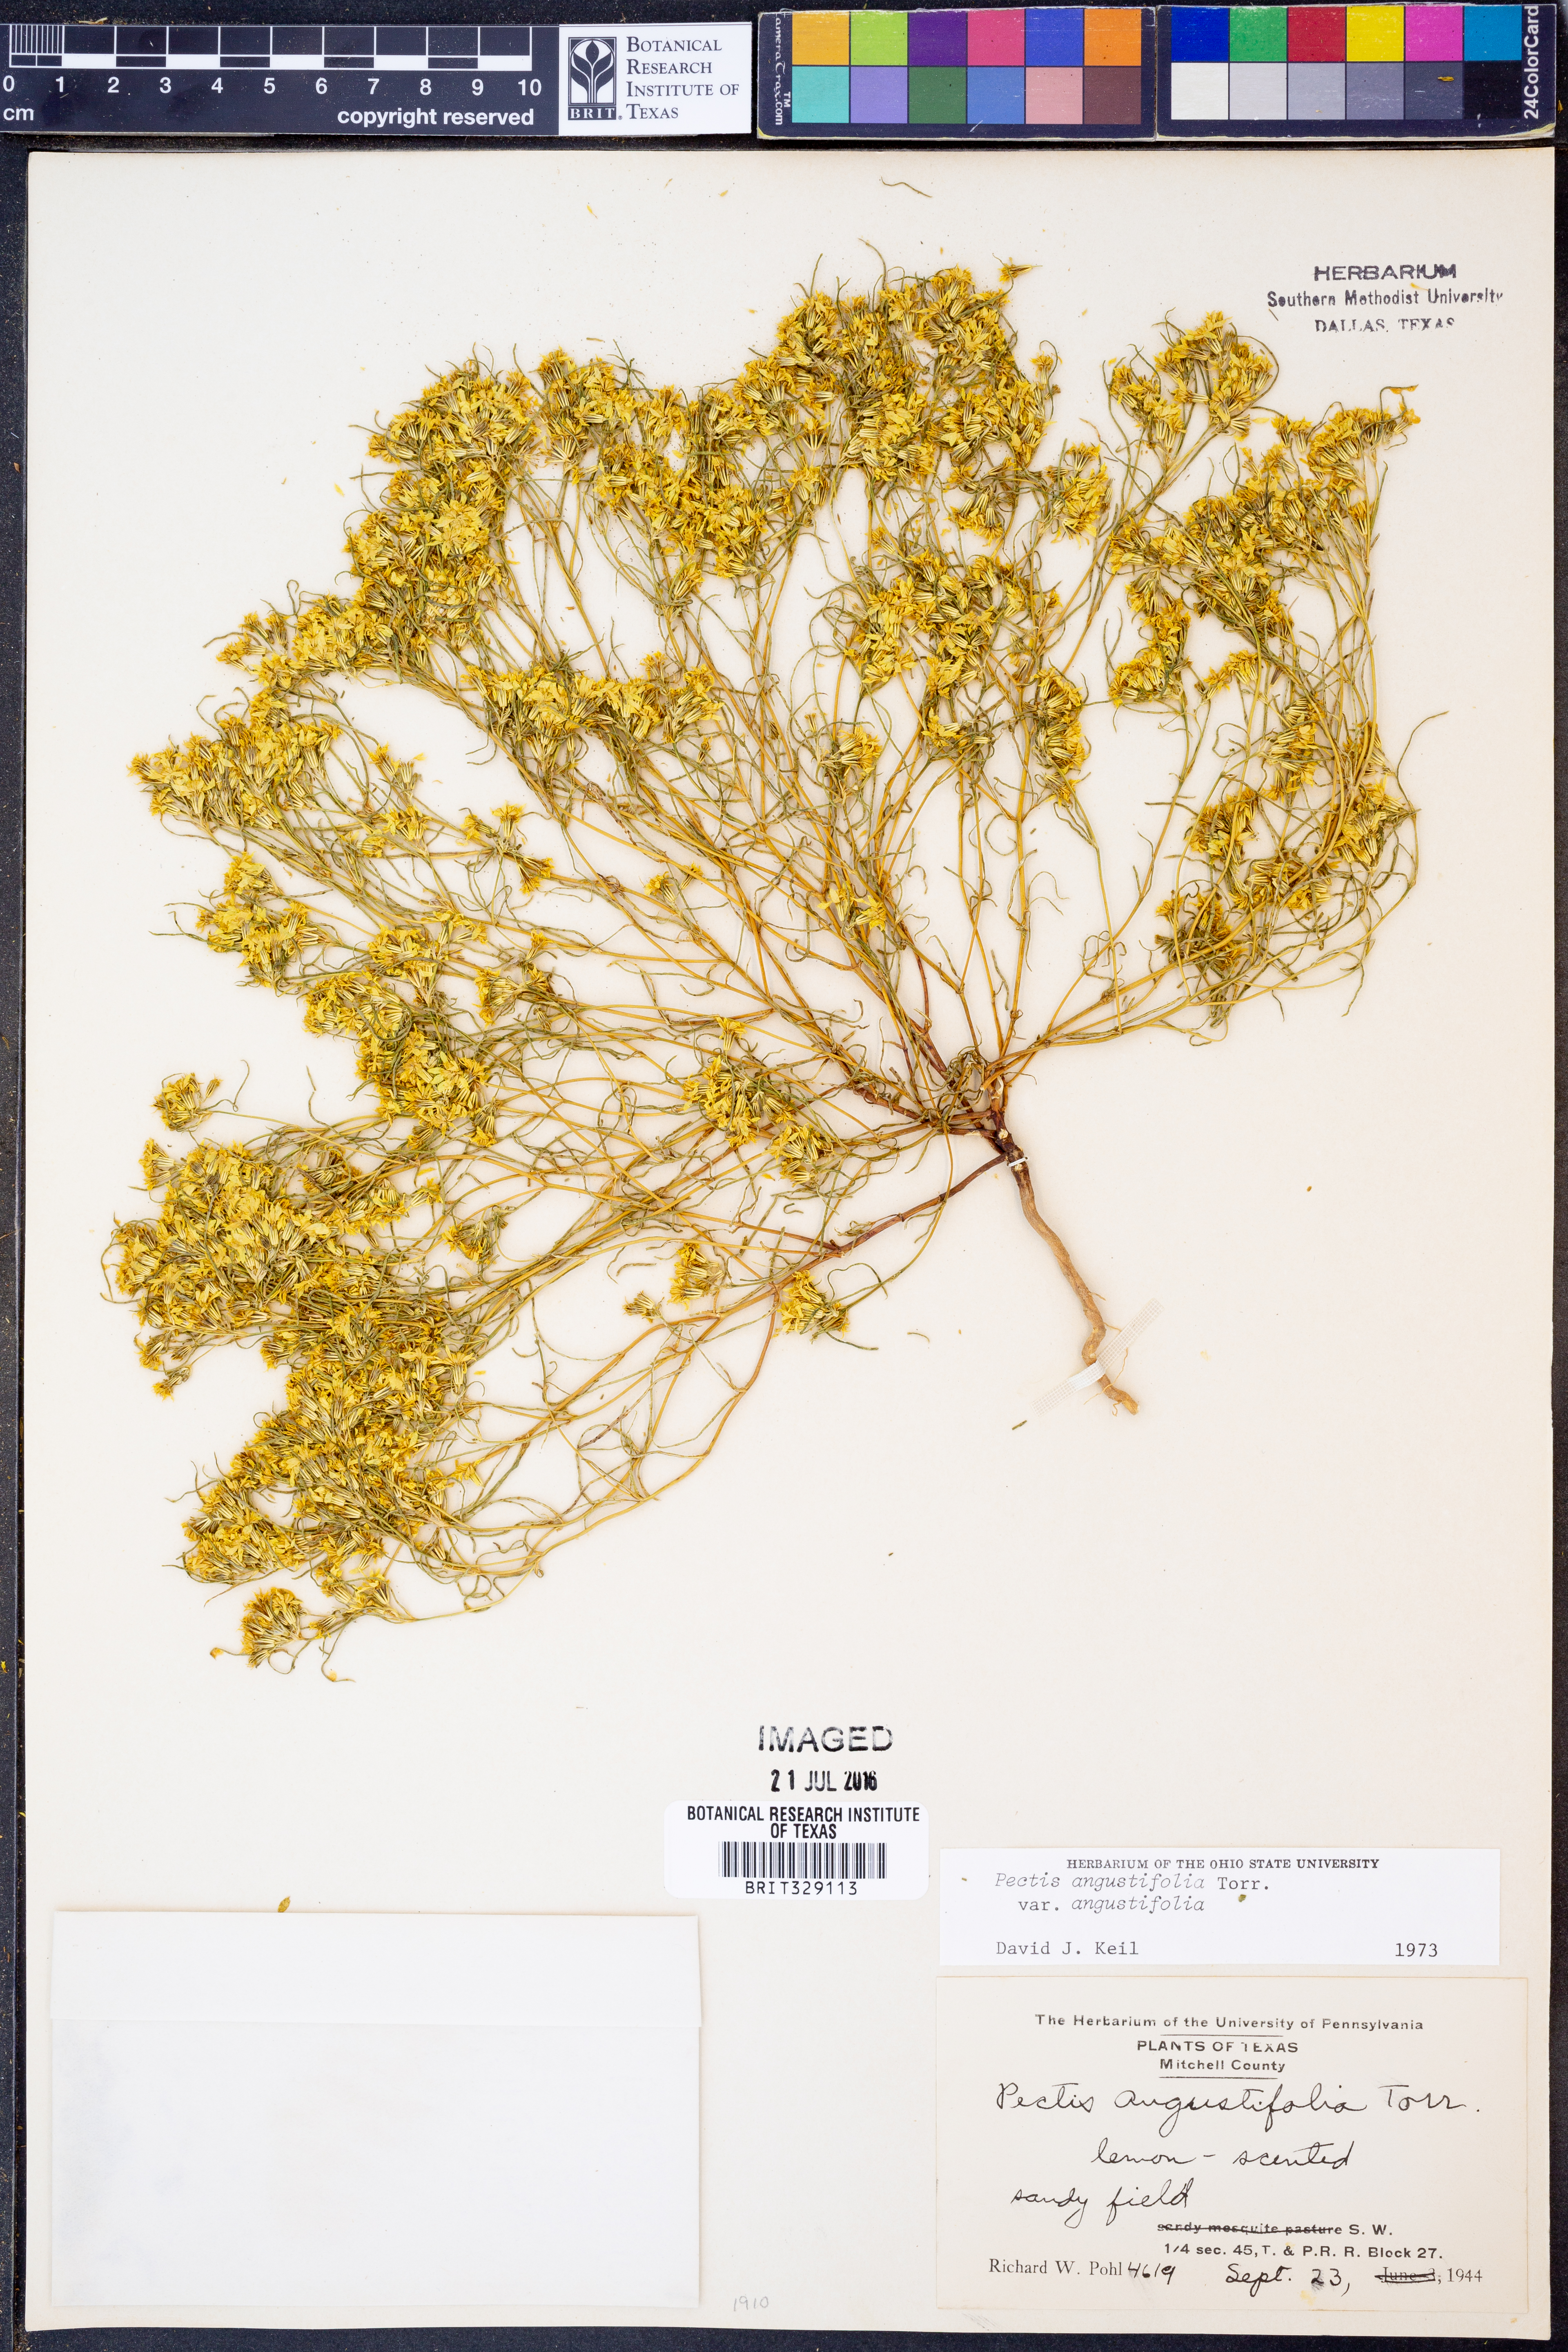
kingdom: Plantae
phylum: Tracheophyta
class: Magnoliopsida
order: Asterales
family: Asteraceae
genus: Pectis
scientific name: Pectis angustifolia
